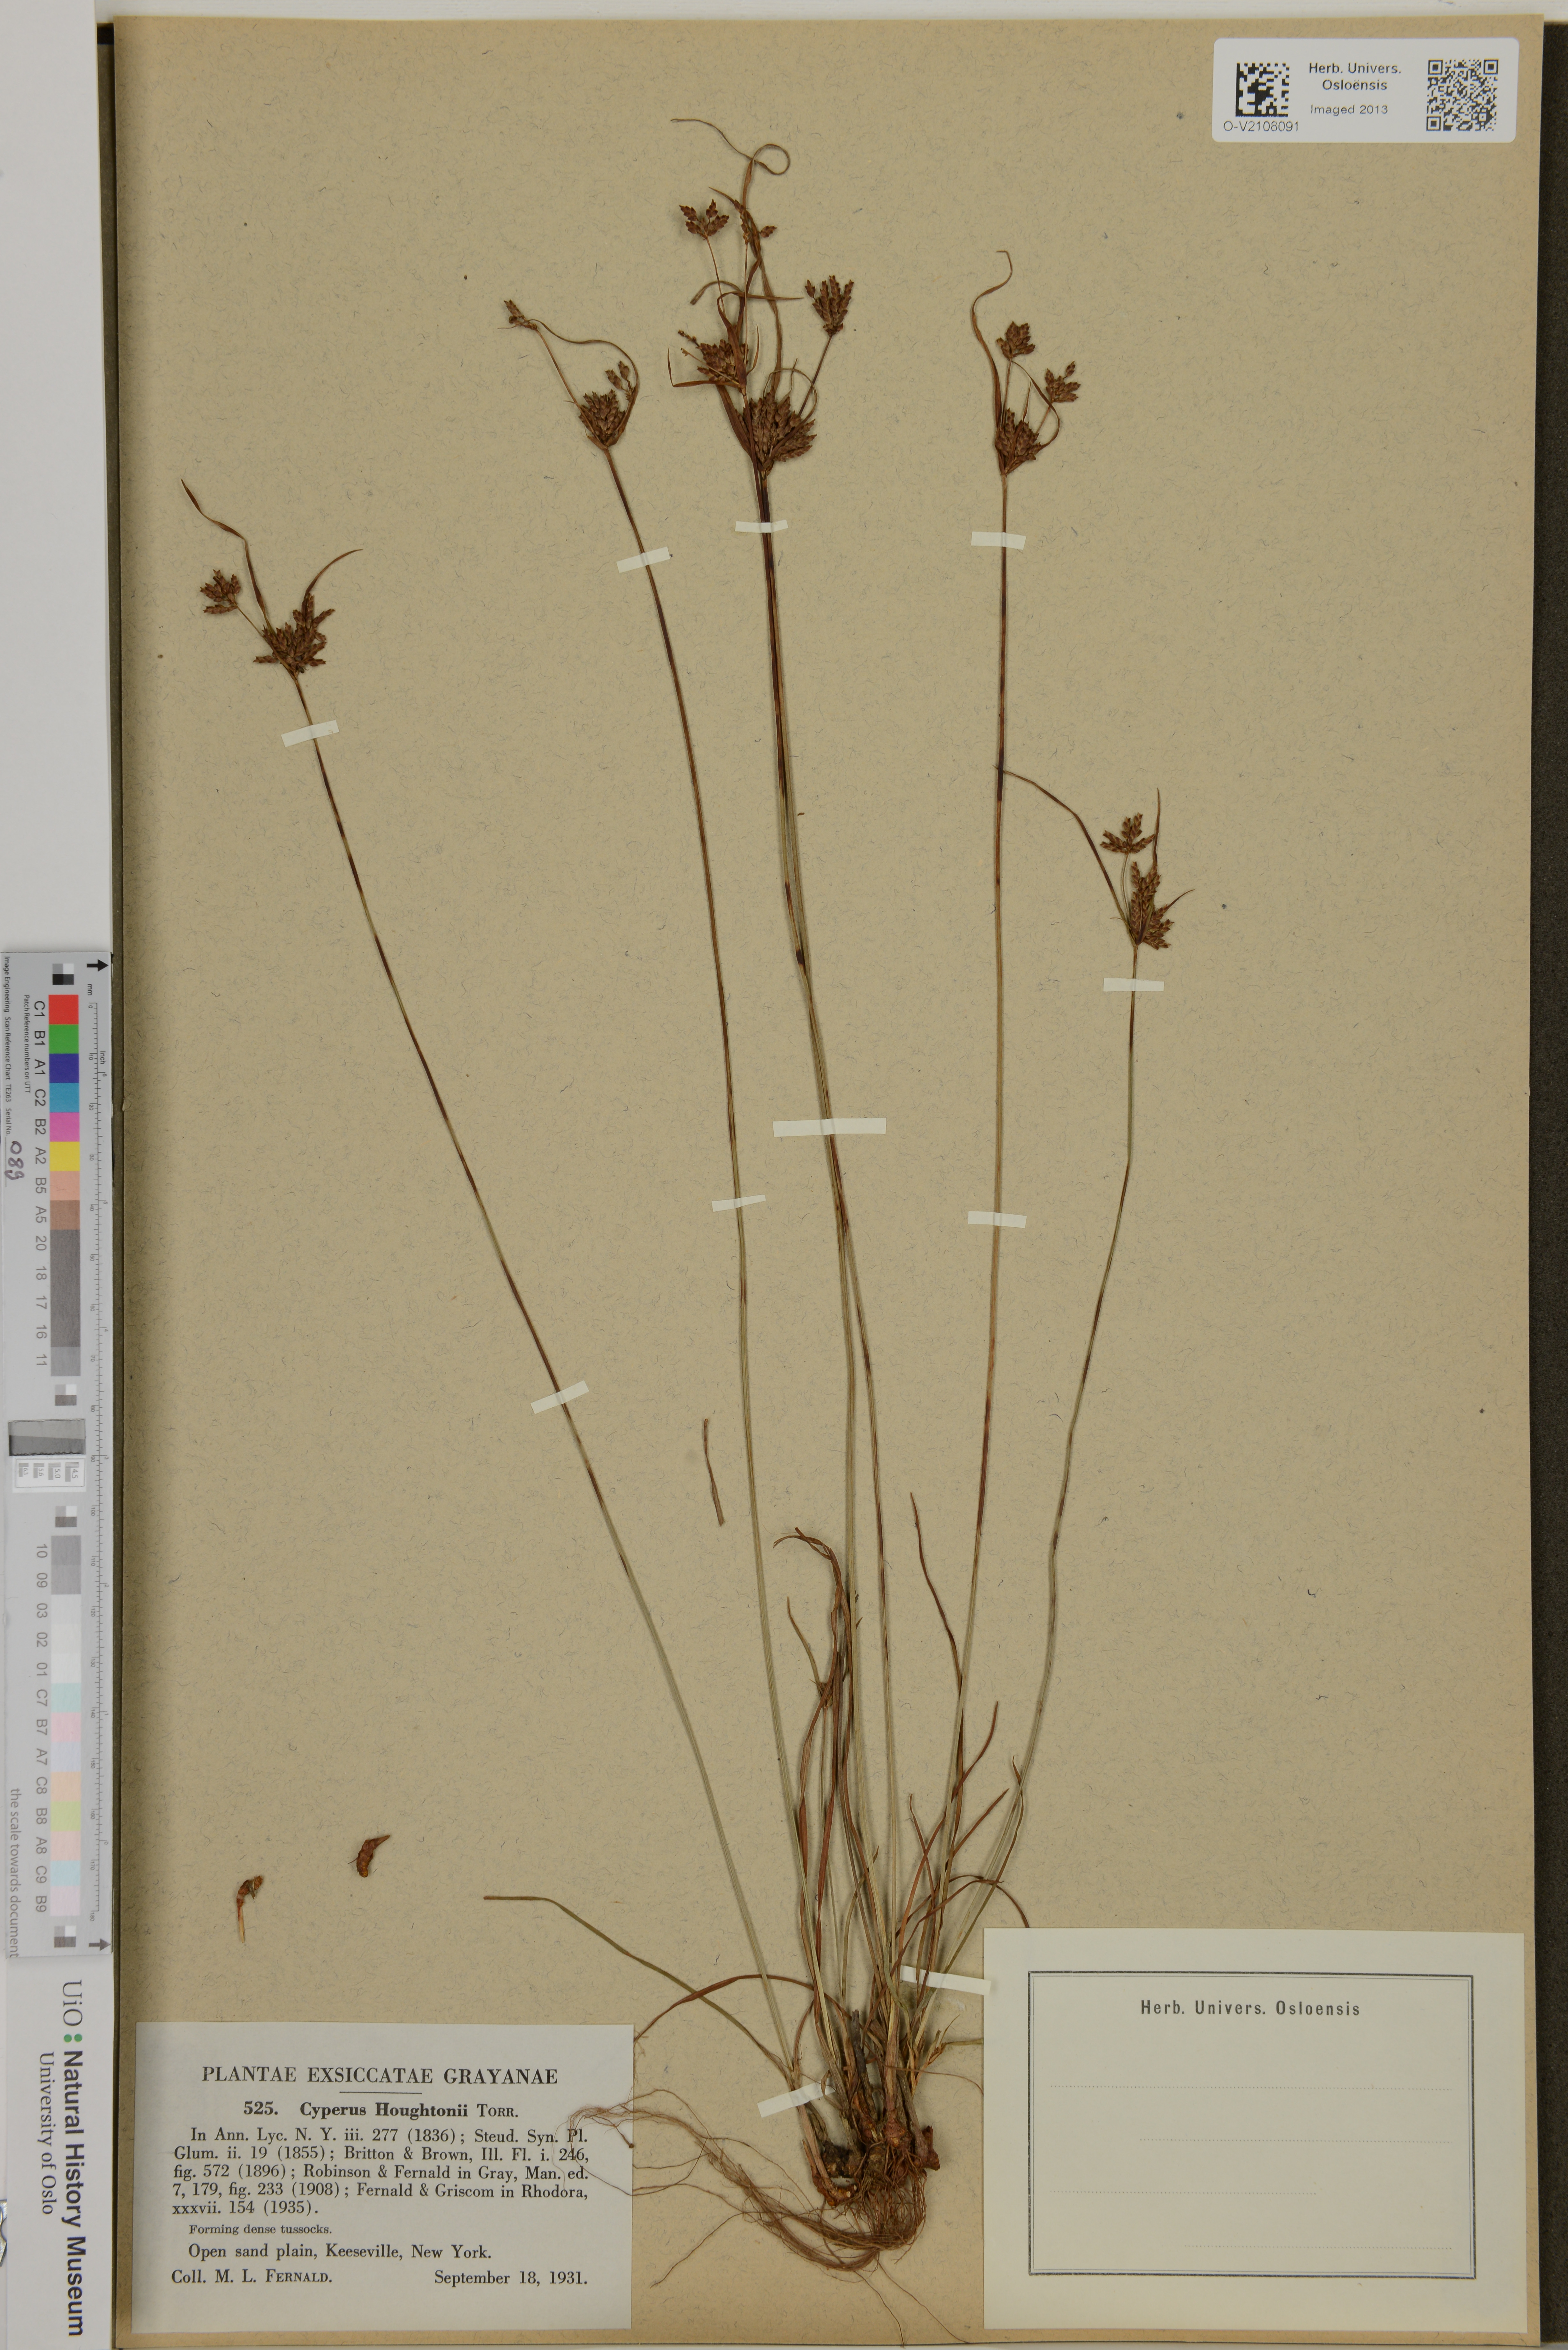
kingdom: Plantae
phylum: Tracheophyta
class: Liliopsida
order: Poales
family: Cyperaceae
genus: Cyperus
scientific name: Cyperus houghtonii
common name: Houghton's cyperus
